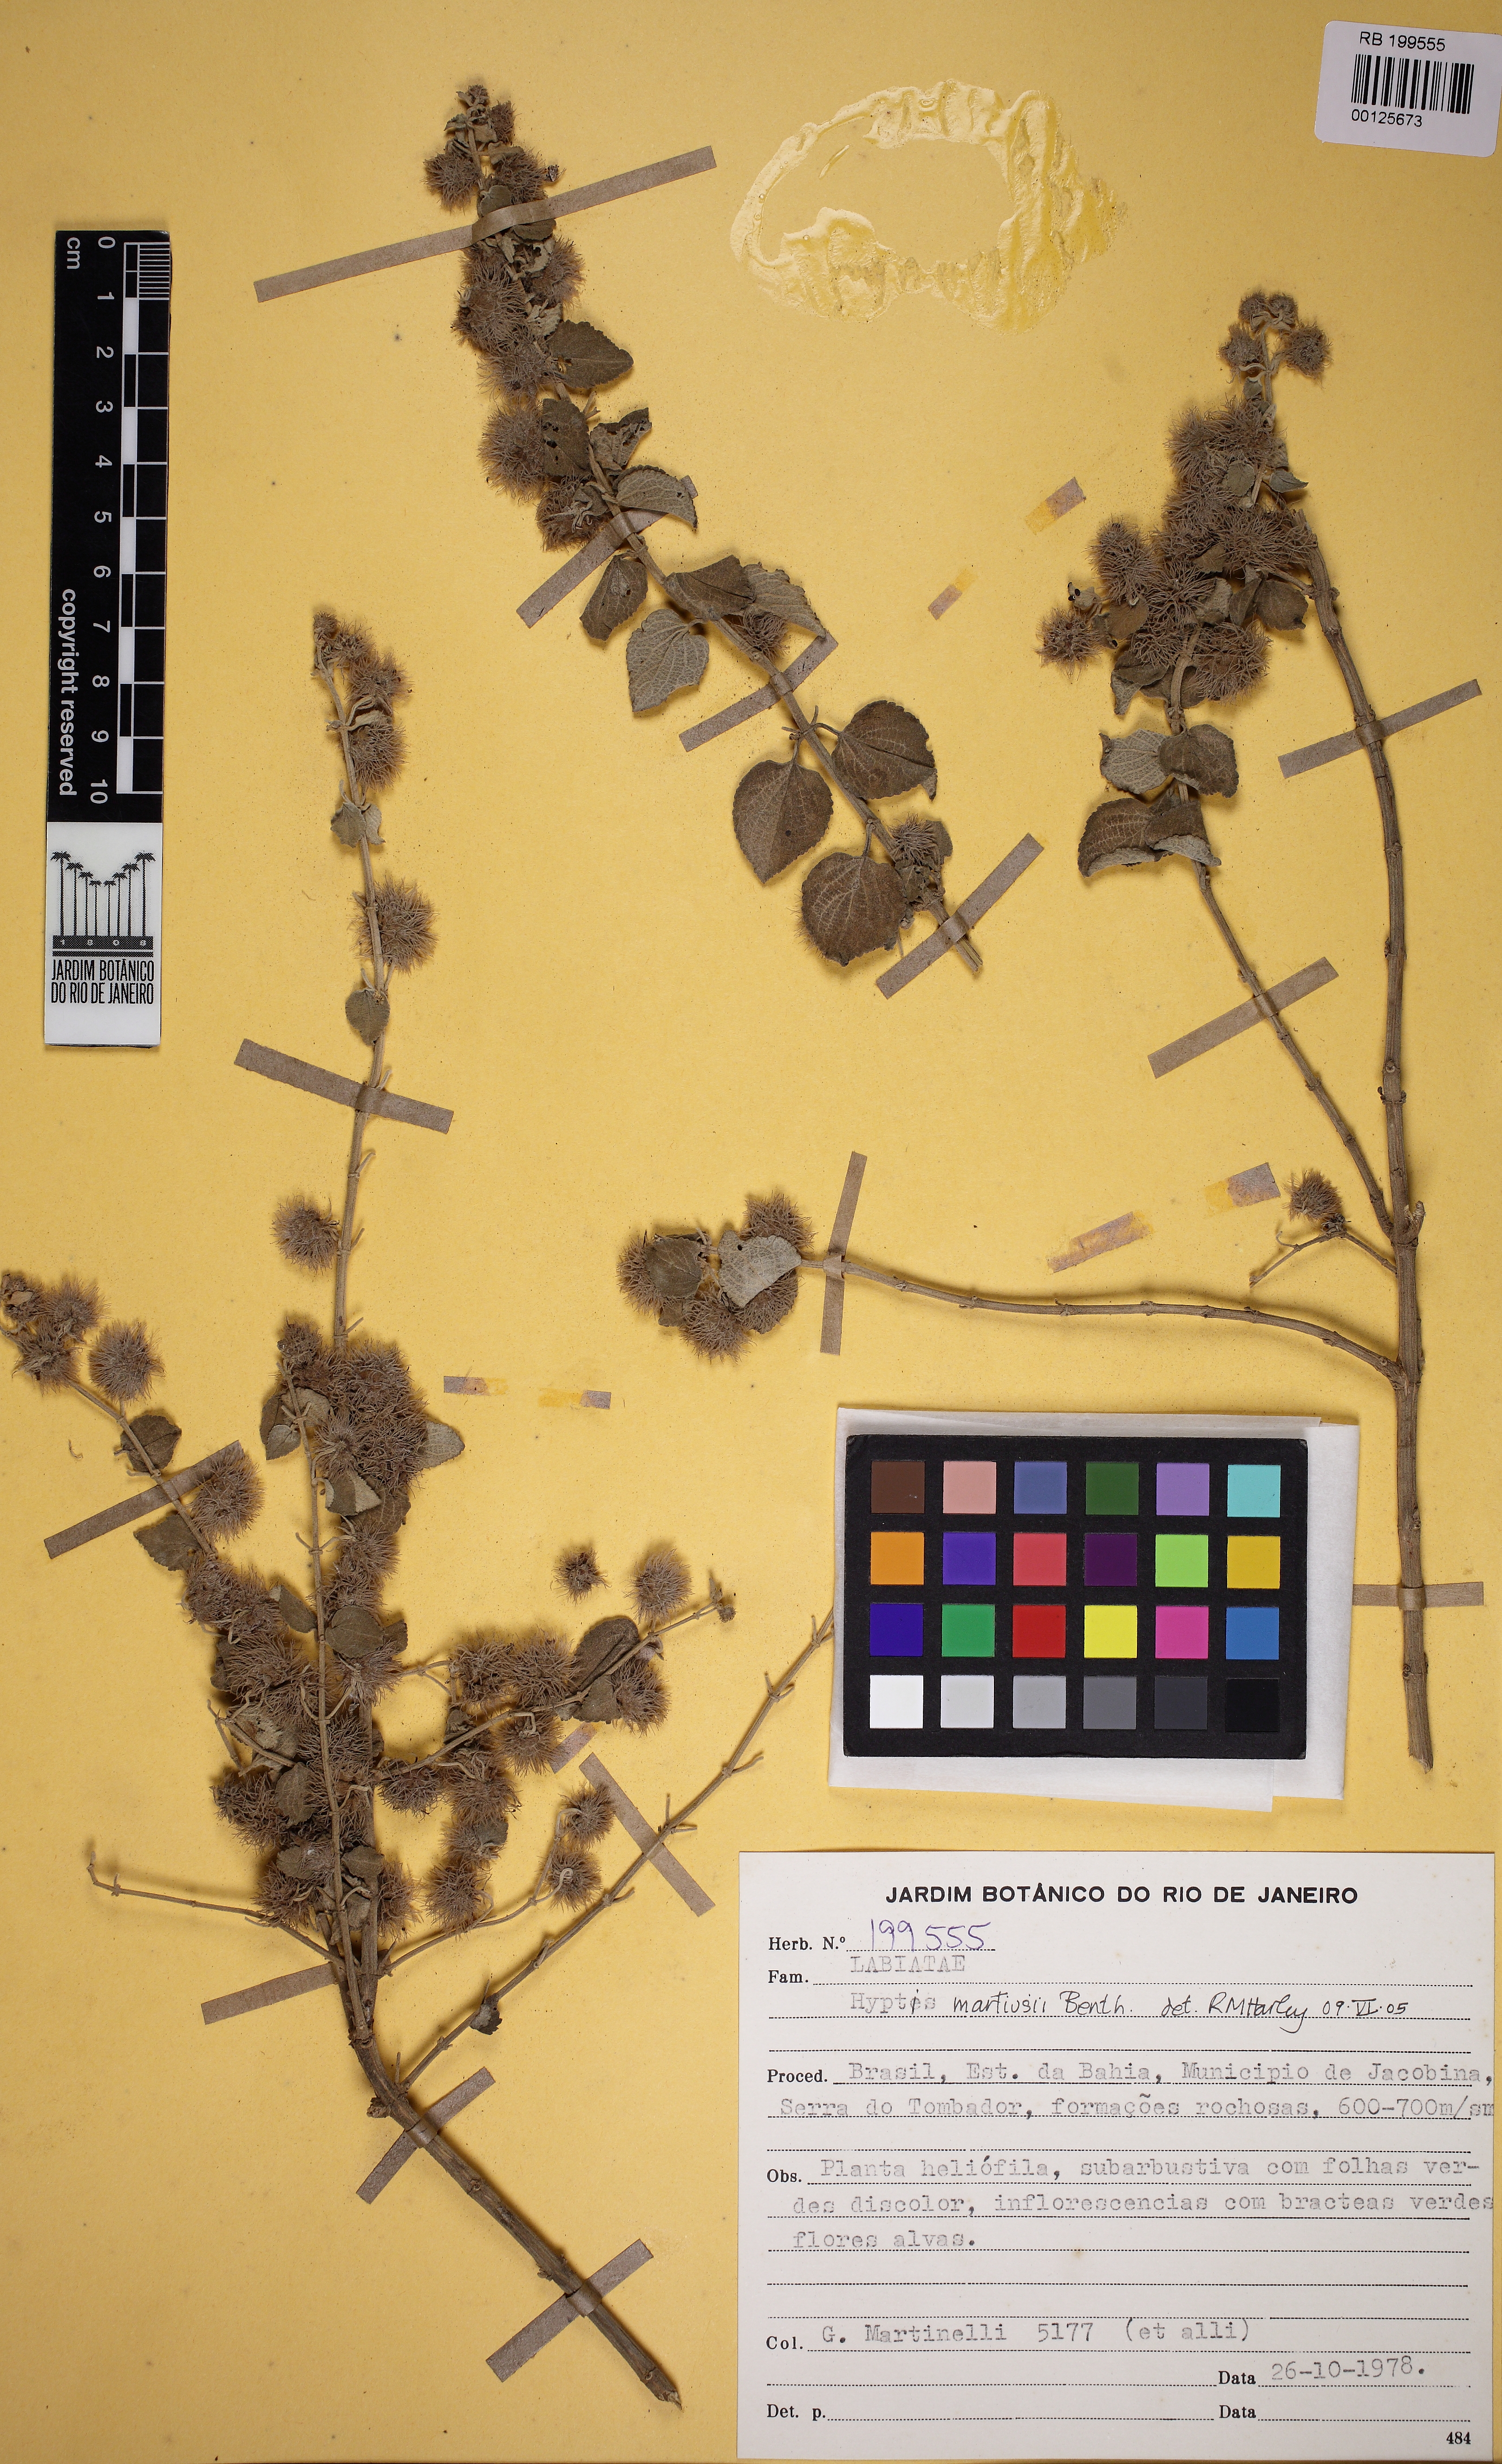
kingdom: Plantae
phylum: Tracheophyta
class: Magnoliopsida
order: Lamiales
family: Lamiaceae
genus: Medusantha
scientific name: Medusantha martiusii
